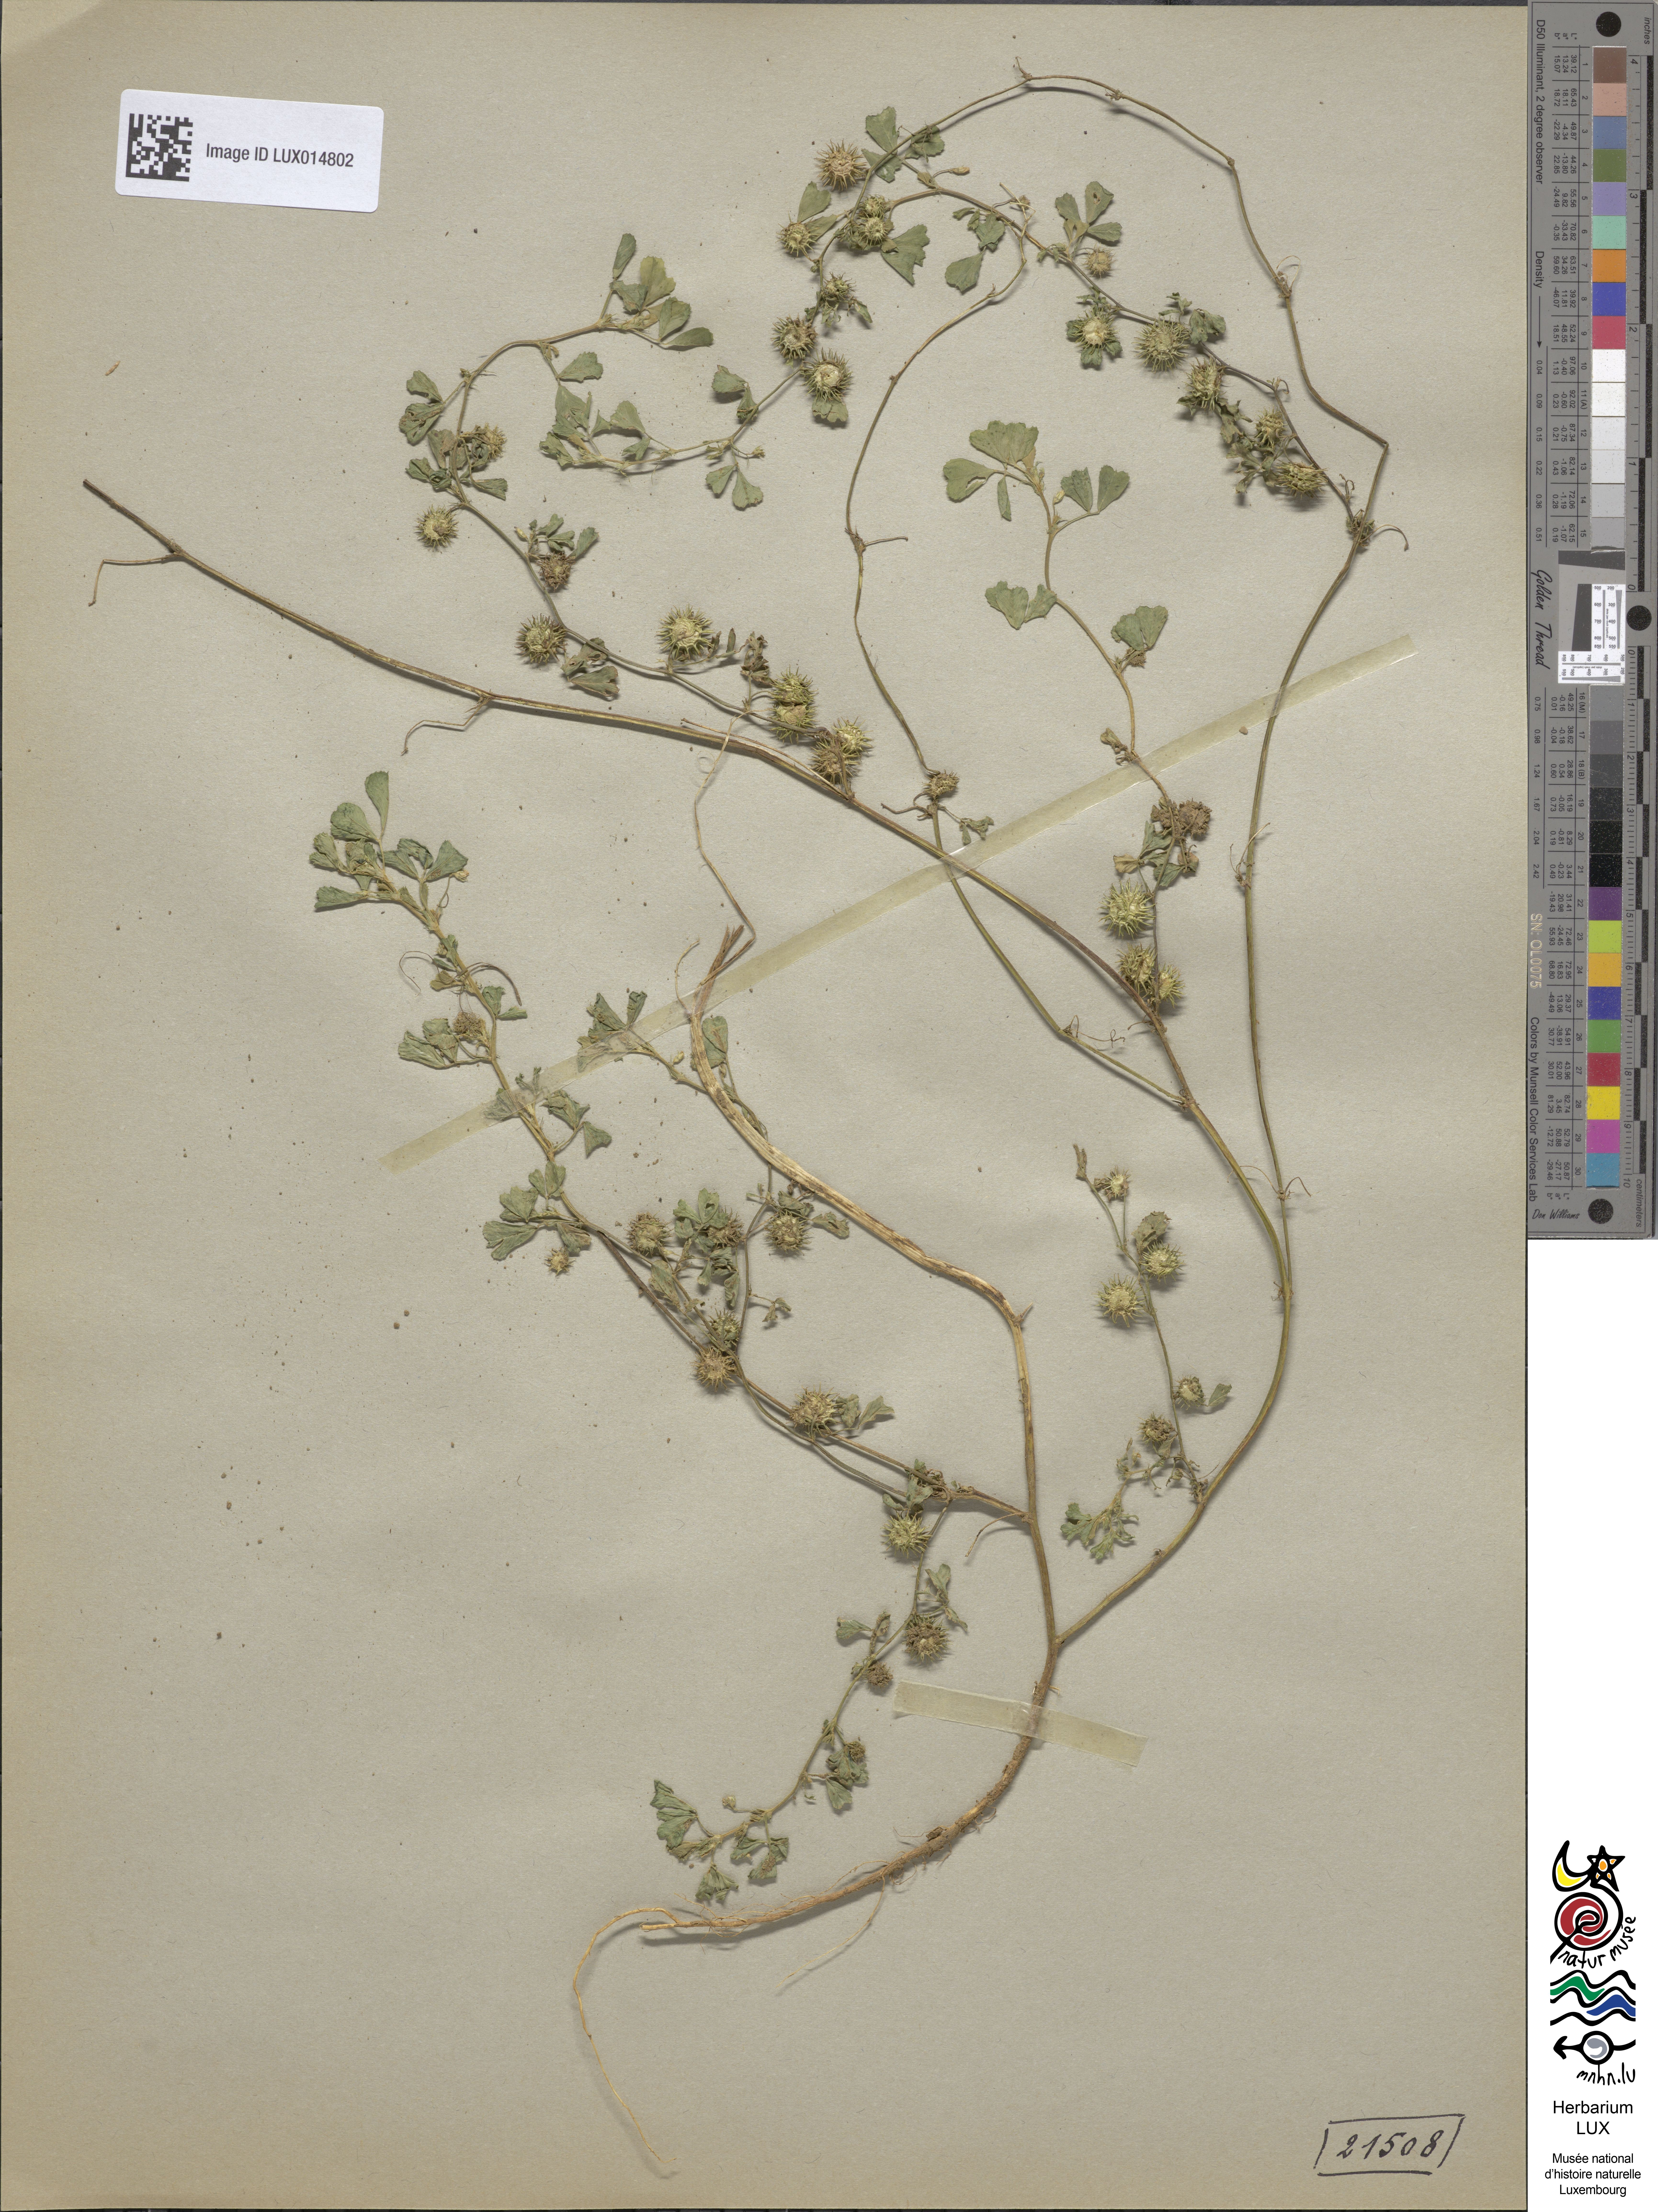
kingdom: Plantae
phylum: Tracheophyta
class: Magnoliopsida
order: Fabales
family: Fabaceae
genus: Medicago
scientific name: Medicago polymorpha
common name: Burclover
